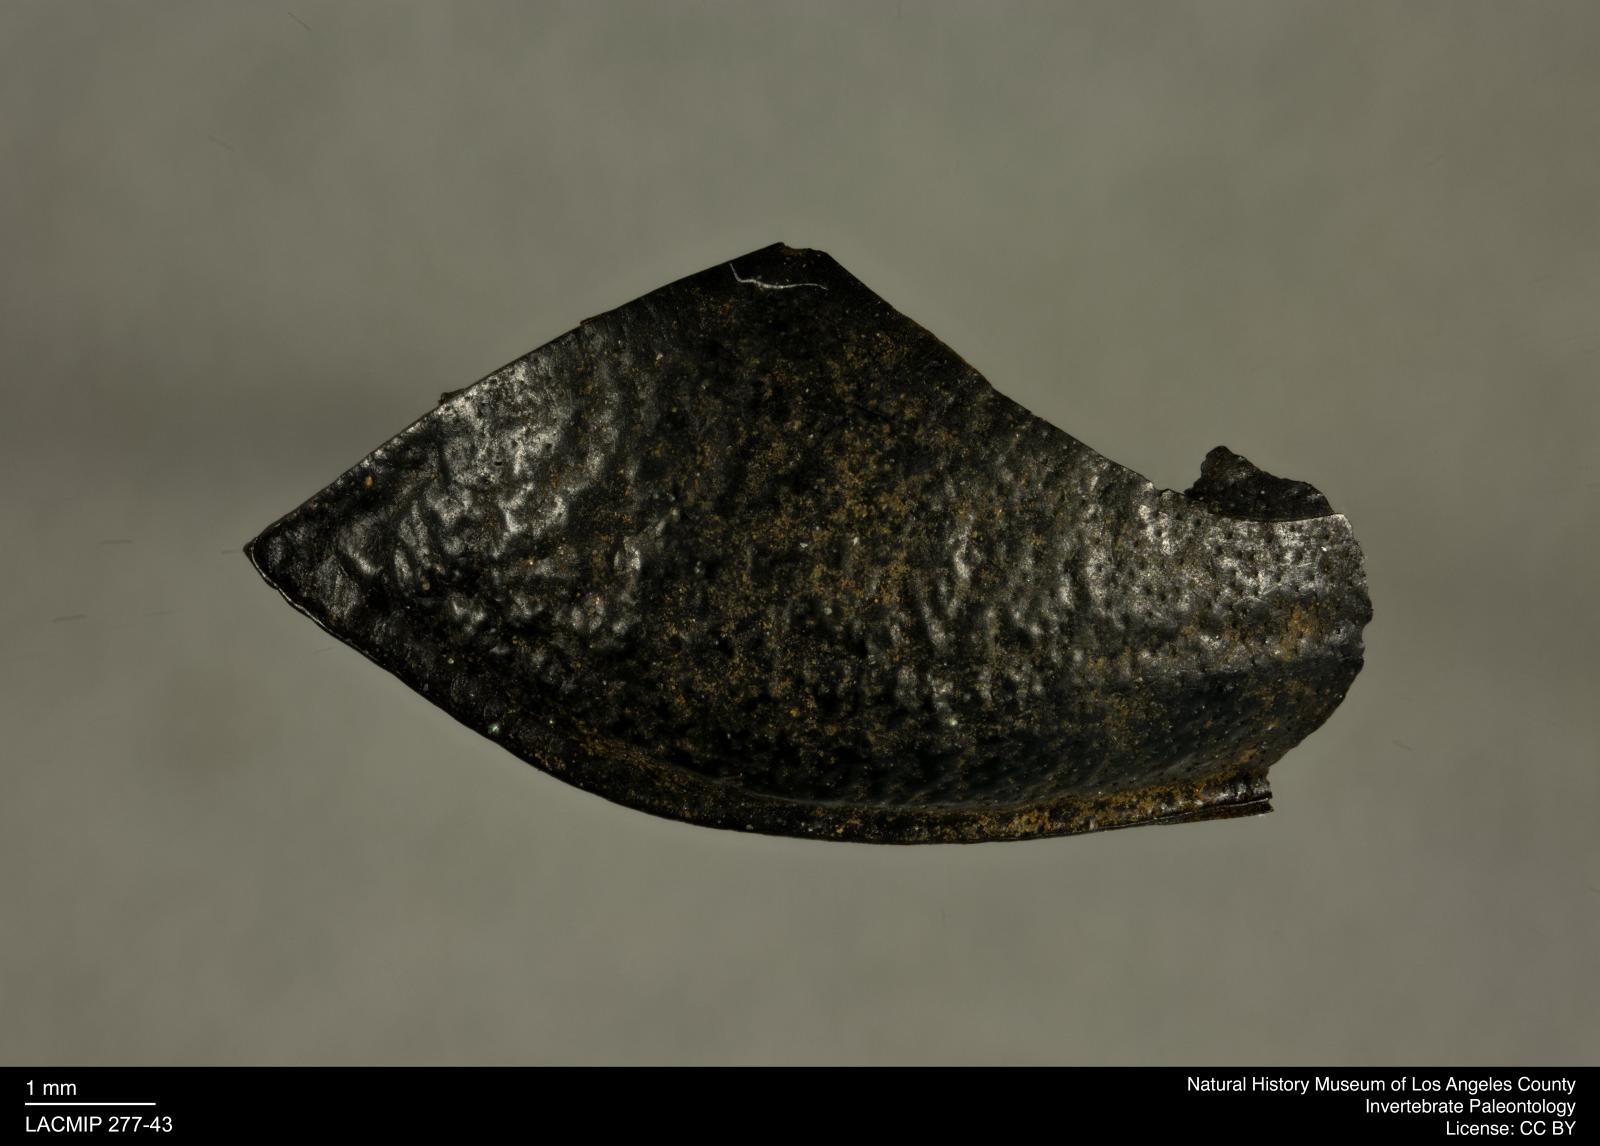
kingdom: Animalia
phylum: Arthropoda
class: Insecta
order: Coleoptera
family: Tenebrionidae
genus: Coniontis
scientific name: Coniontis abdominalis
